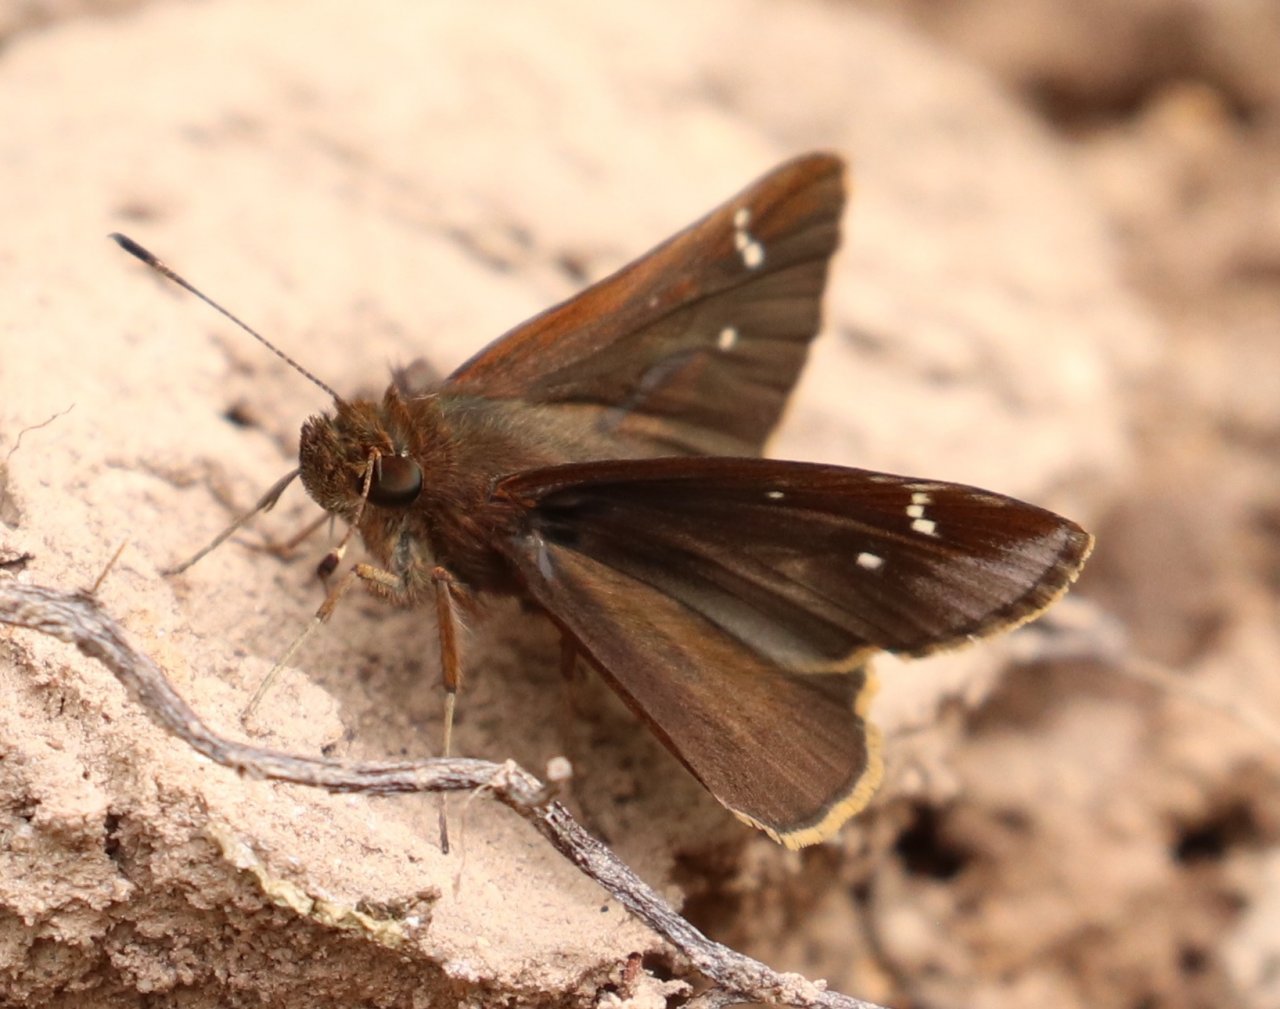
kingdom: Animalia
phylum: Arthropoda
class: Insecta
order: Lepidoptera
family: Hesperiidae
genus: Lerema
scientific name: Lerema accius
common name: Clouded Skipper
